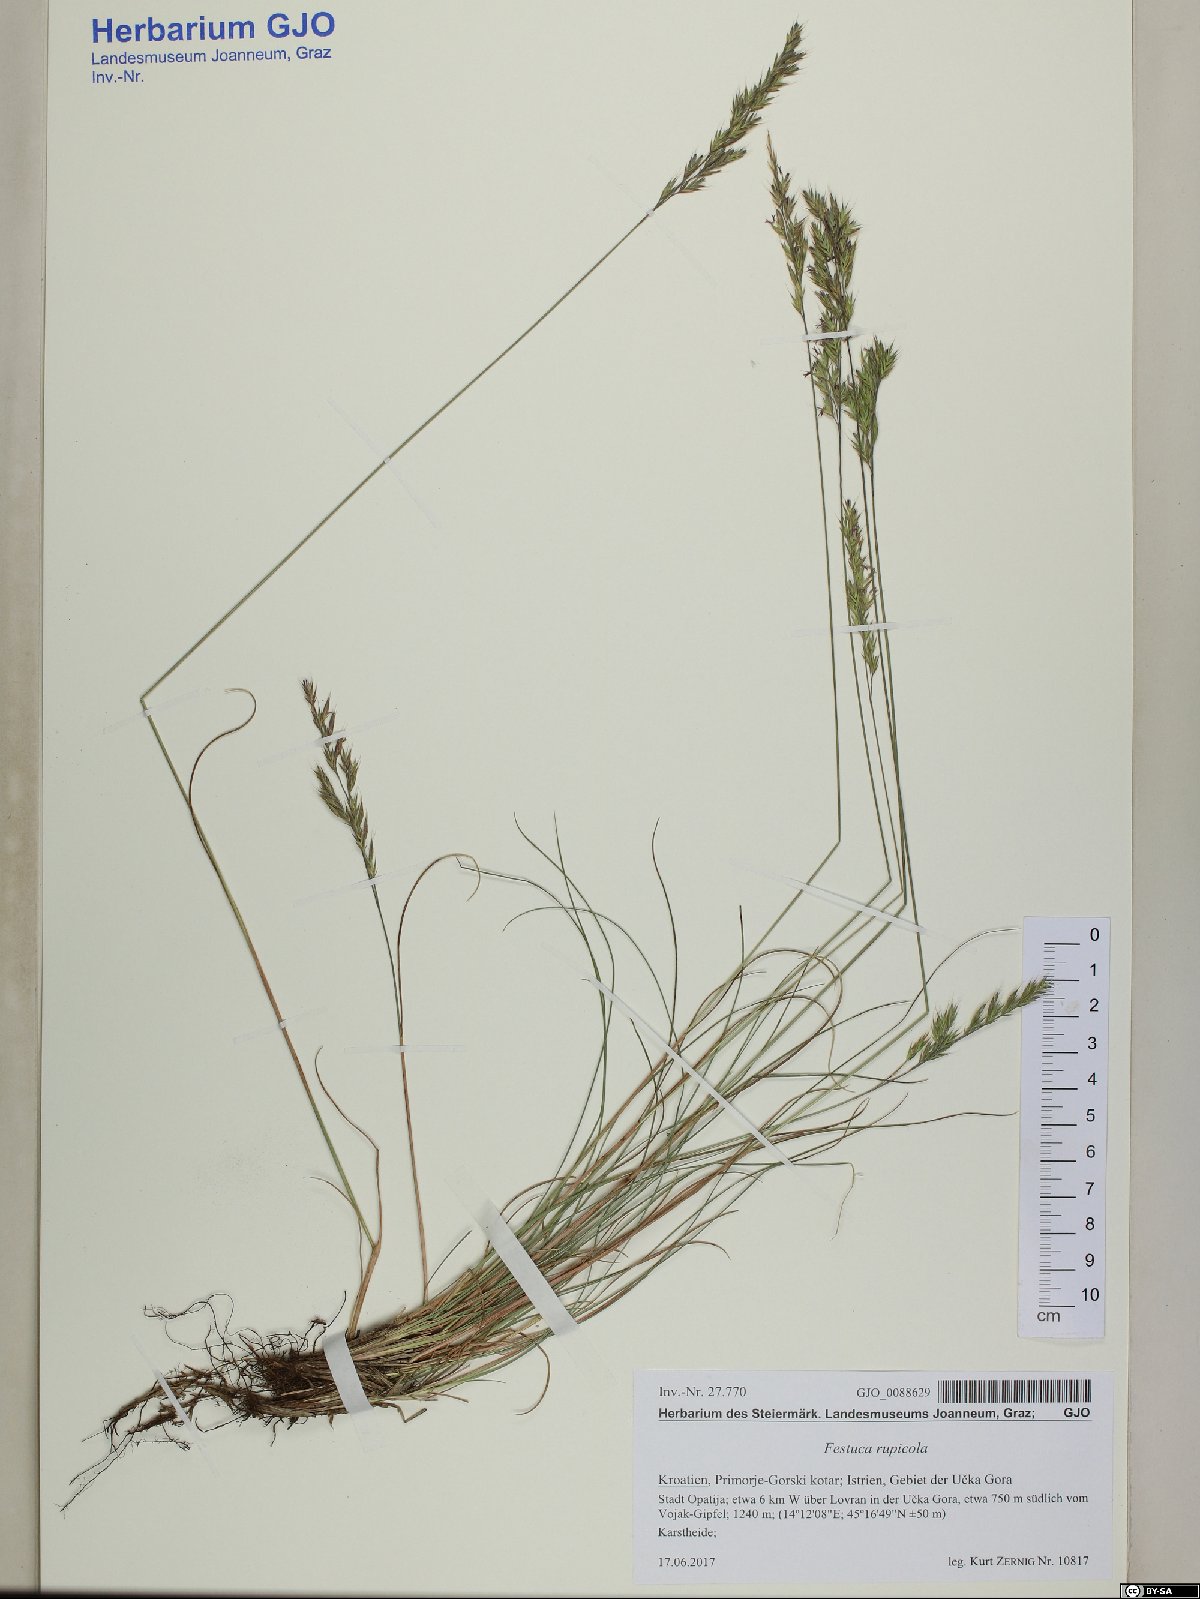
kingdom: Plantae
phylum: Tracheophyta
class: Liliopsida
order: Poales
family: Poaceae
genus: Festuca
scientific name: Festuca rupicola
